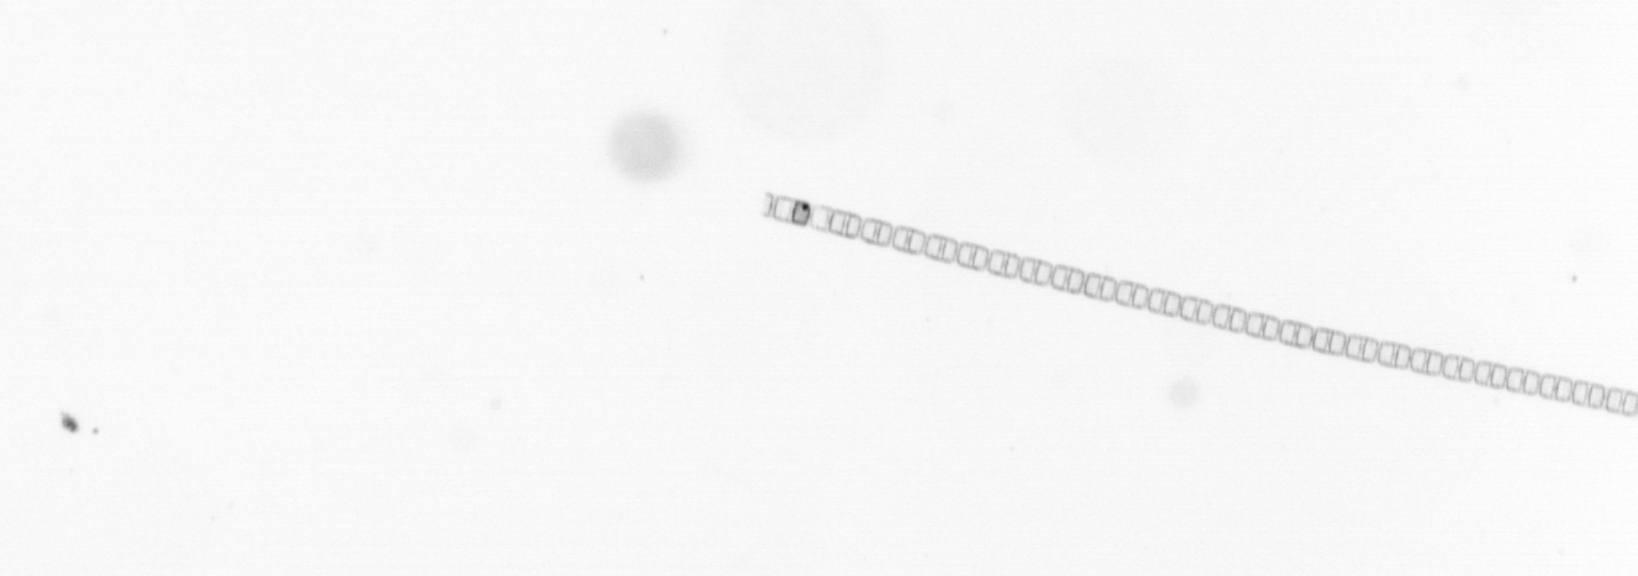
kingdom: Chromista
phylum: Ochrophyta
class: Bacillariophyceae
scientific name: Bacillariophyceae
